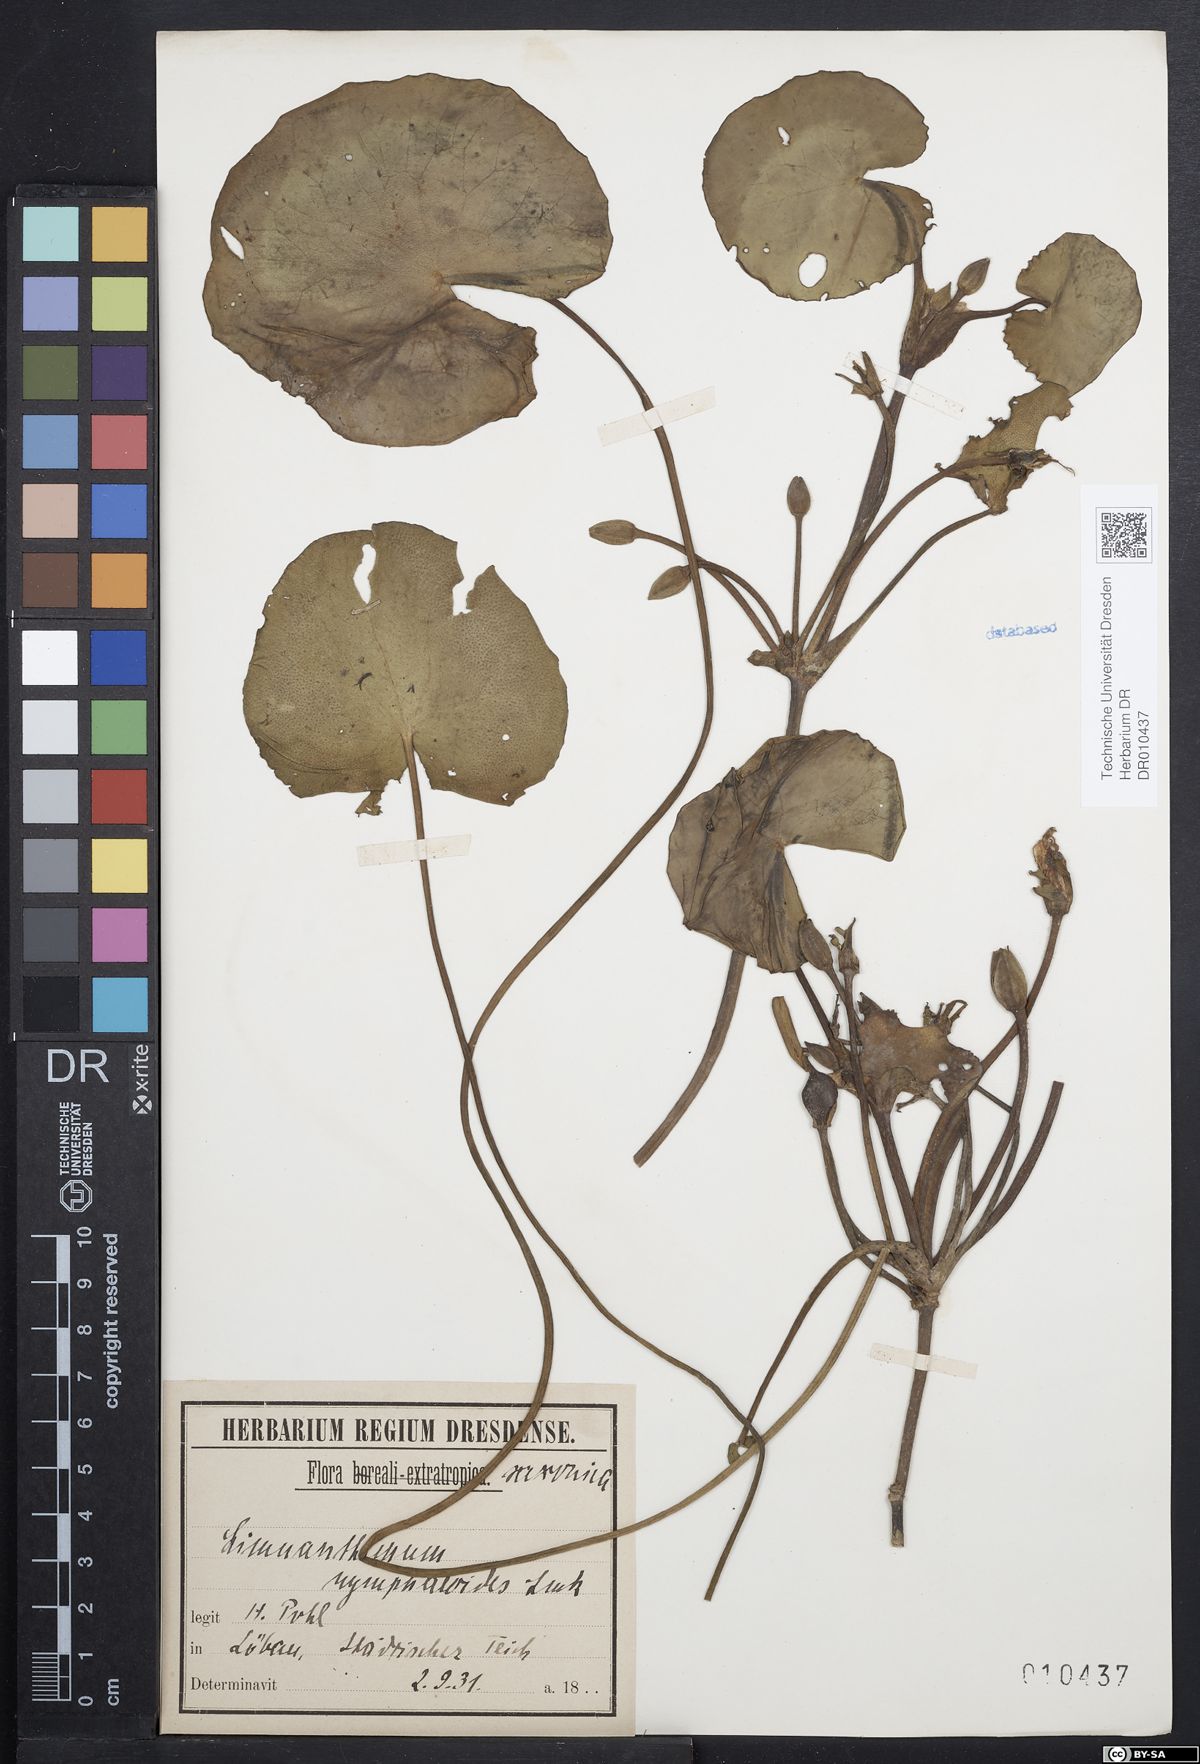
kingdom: Plantae
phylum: Tracheophyta
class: Magnoliopsida
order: Asterales
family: Menyanthaceae
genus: Nymphoides
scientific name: Nymphoides peltata
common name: Fringed water-lily
